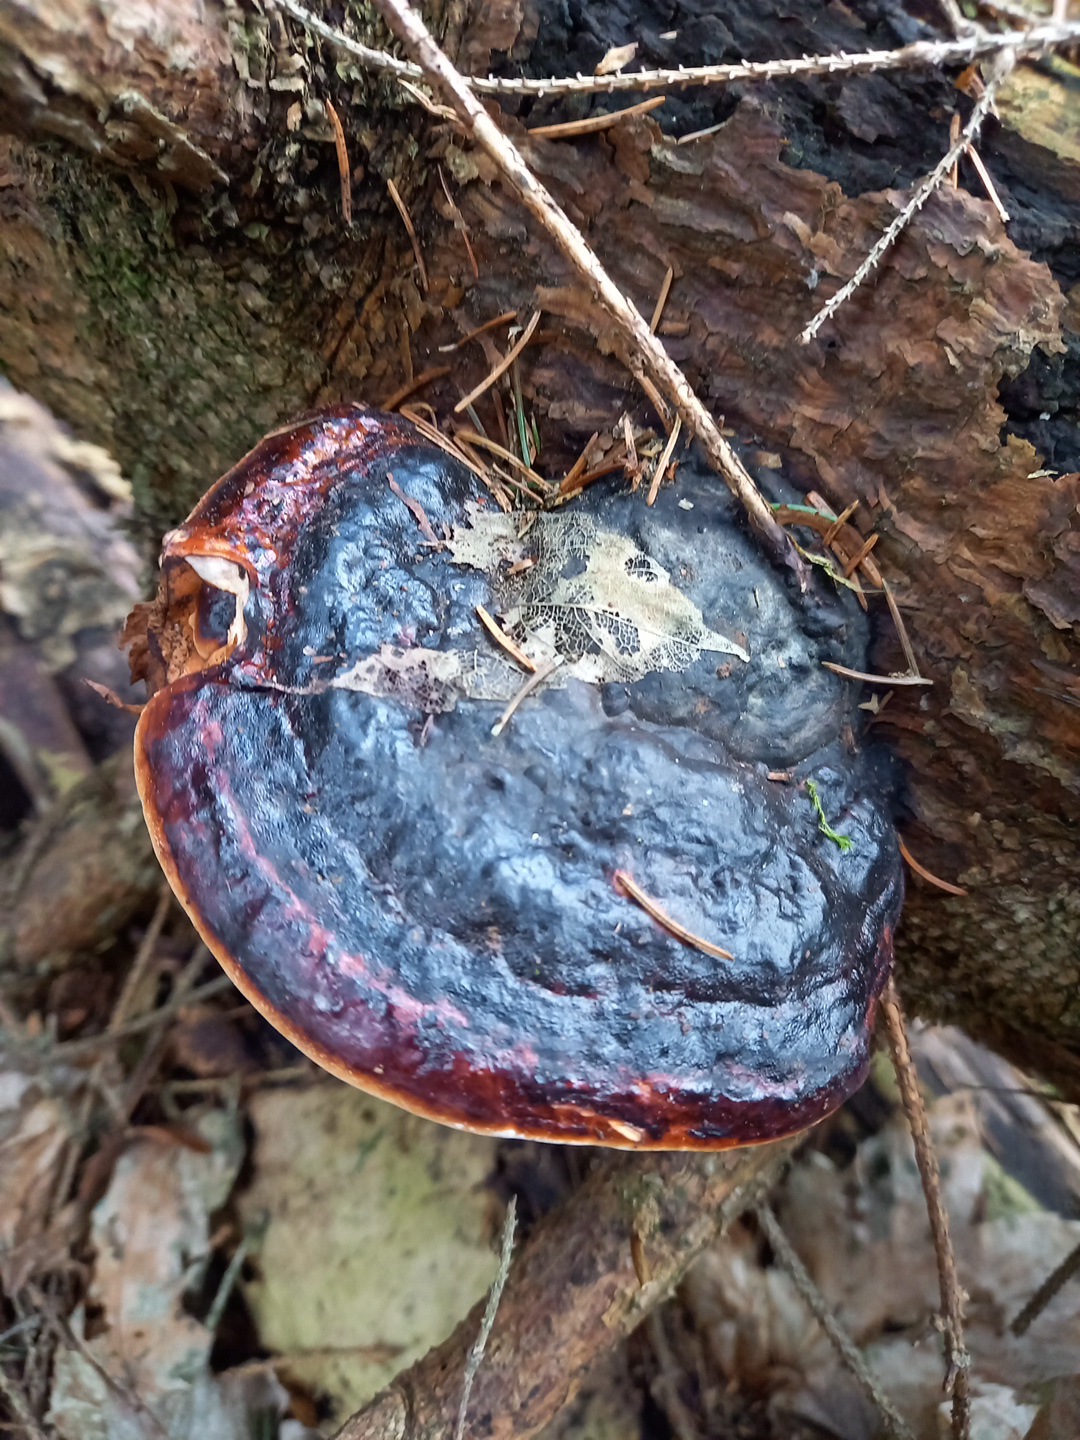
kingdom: Fungi
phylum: Basidiomycota
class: Agaricomycetes
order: Polyporales
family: Fomitopsidaceae
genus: Fomitopsis
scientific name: Fomitopsis pinicola
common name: randbæltet hovporesvamp
